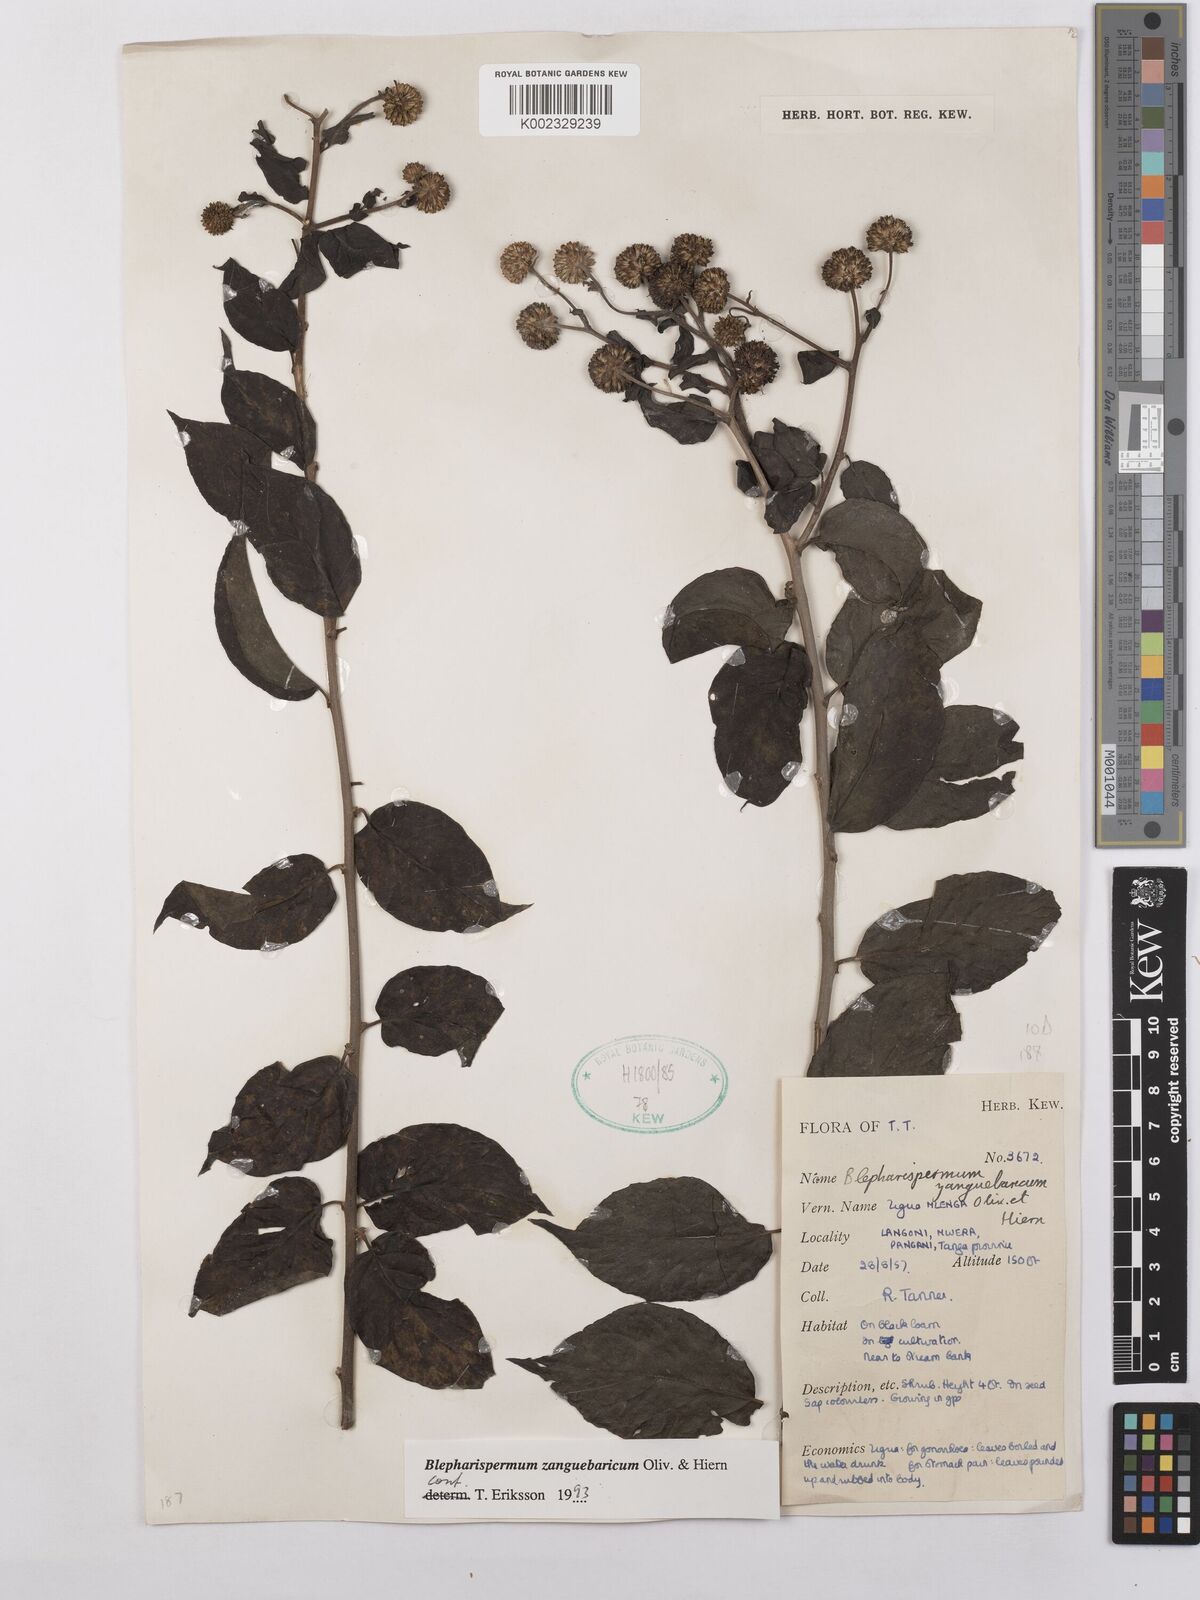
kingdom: Plantae
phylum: Tracheophyta
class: Magnoliopsida
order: Asterales
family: Asteraceae
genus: Blepharispermum
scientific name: Blepharispermum zanguebaricum
